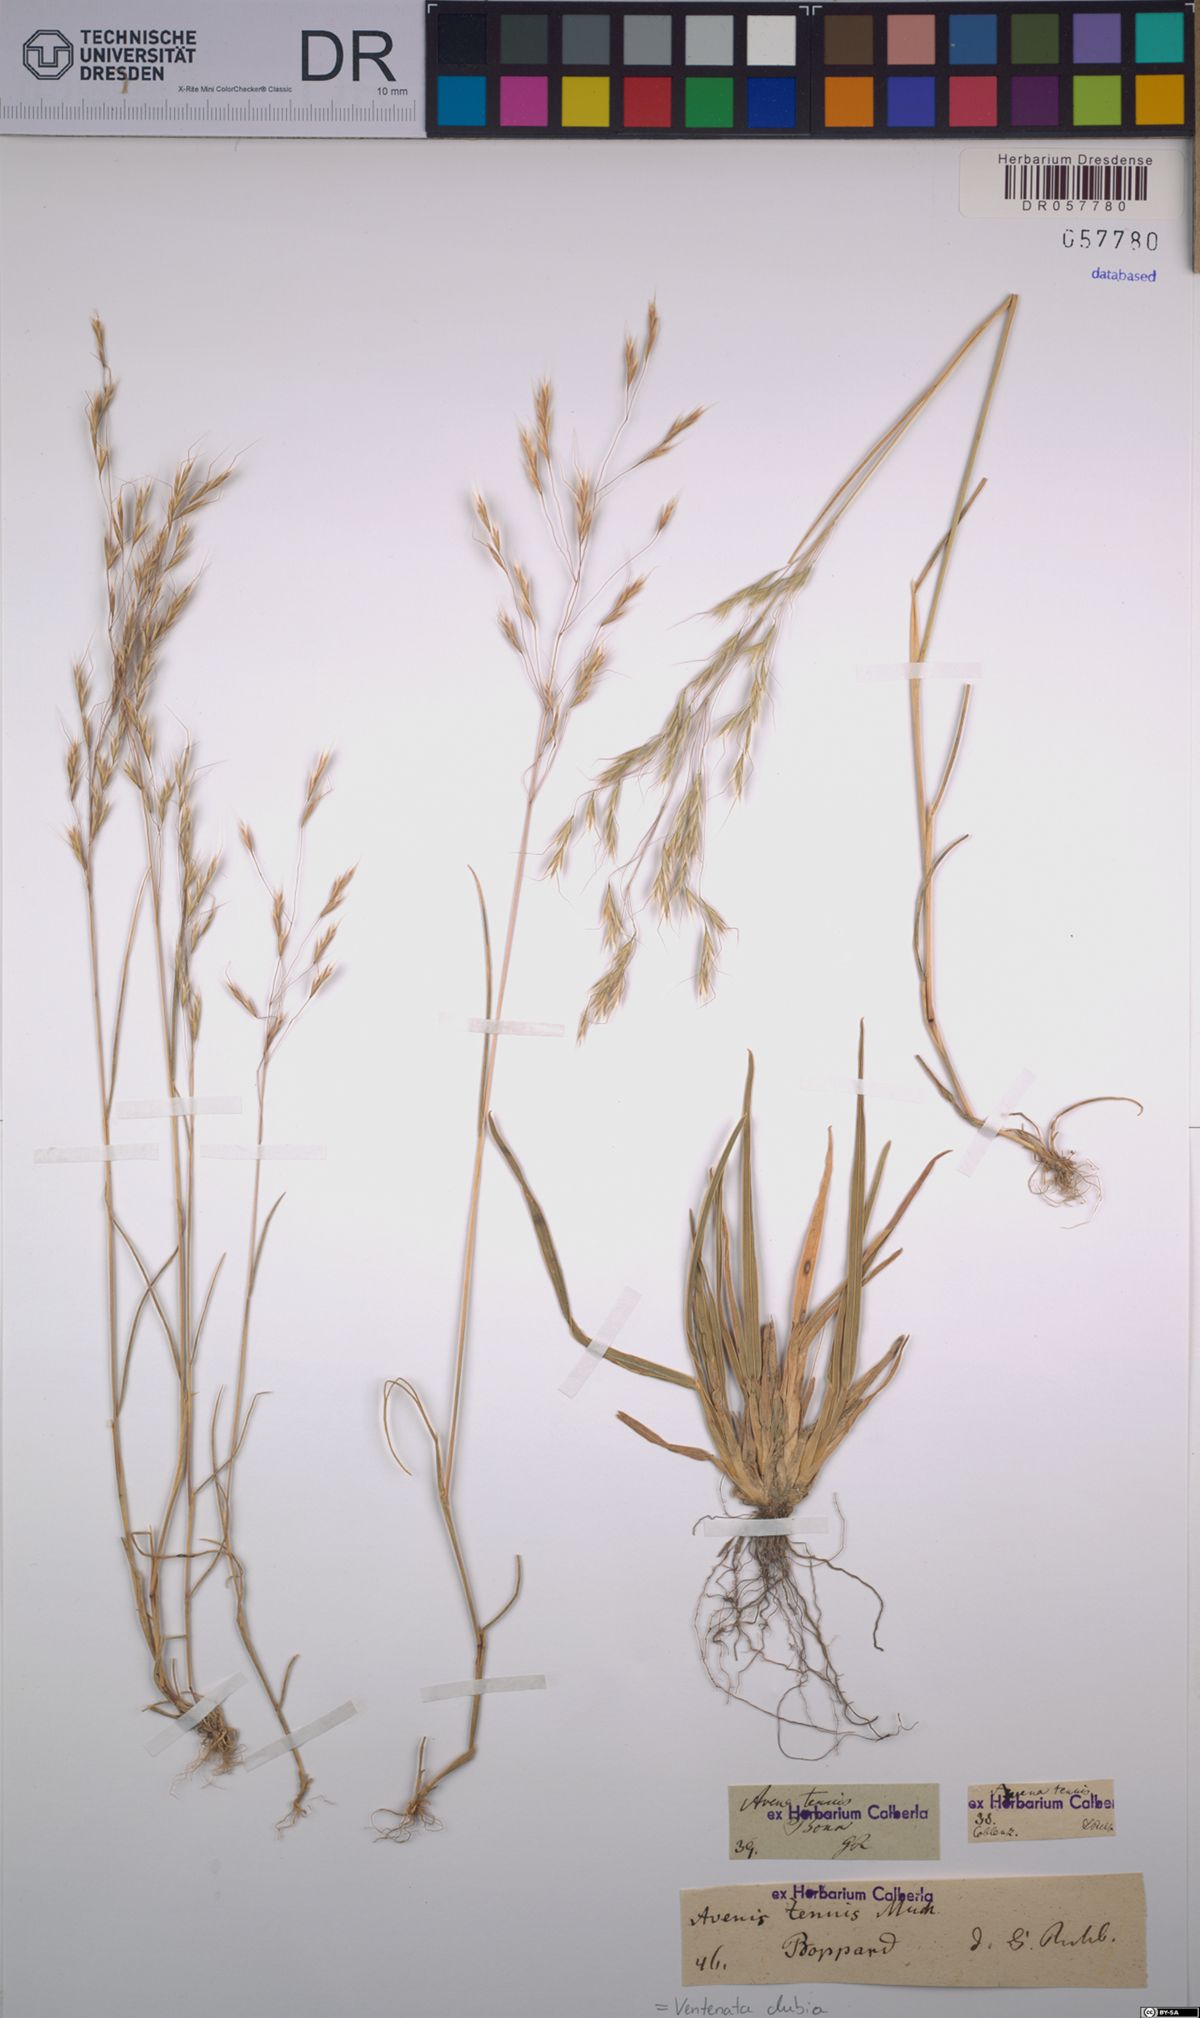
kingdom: Plantae
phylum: Tracheophyta
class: Liliopsida
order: Poales
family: Poaceae
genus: Ventenata
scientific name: Ventenata dubia
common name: North africa grass
